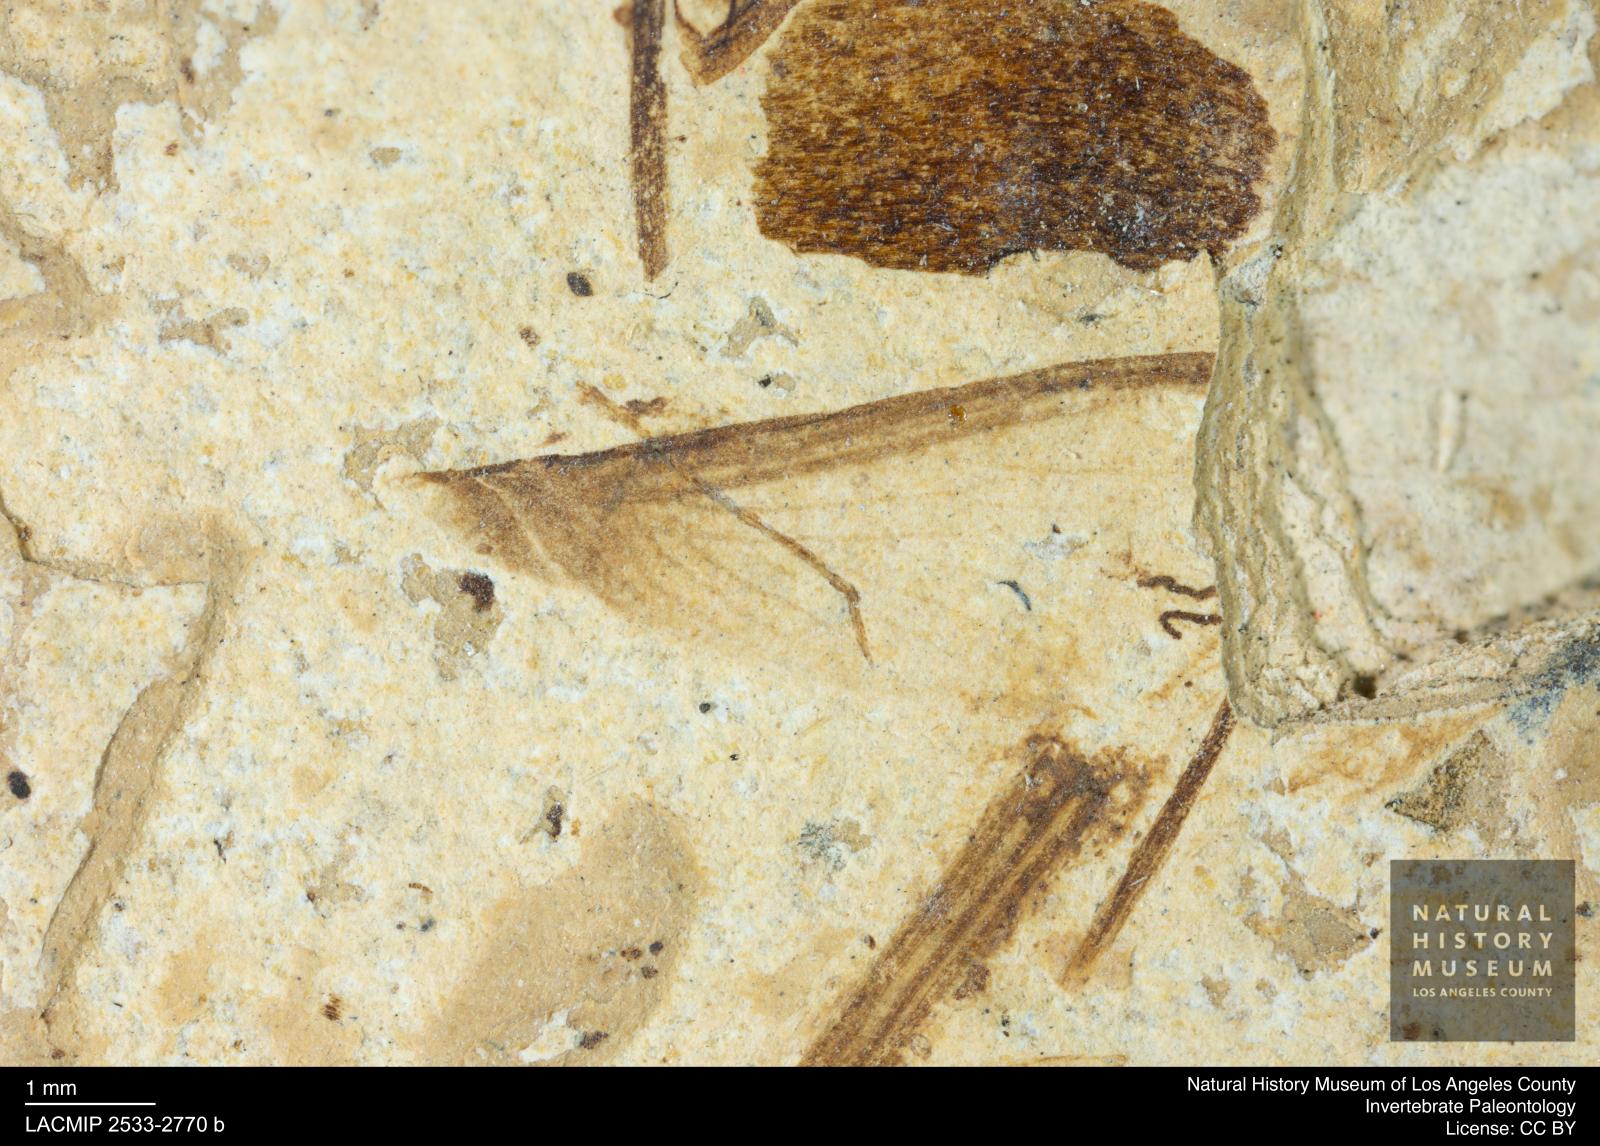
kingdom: Animalia
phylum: Arthropoda
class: Insecta
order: Blattodea
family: Hodotermitidae
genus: Ulmeriella
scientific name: Ulmeriella bauckhorni
